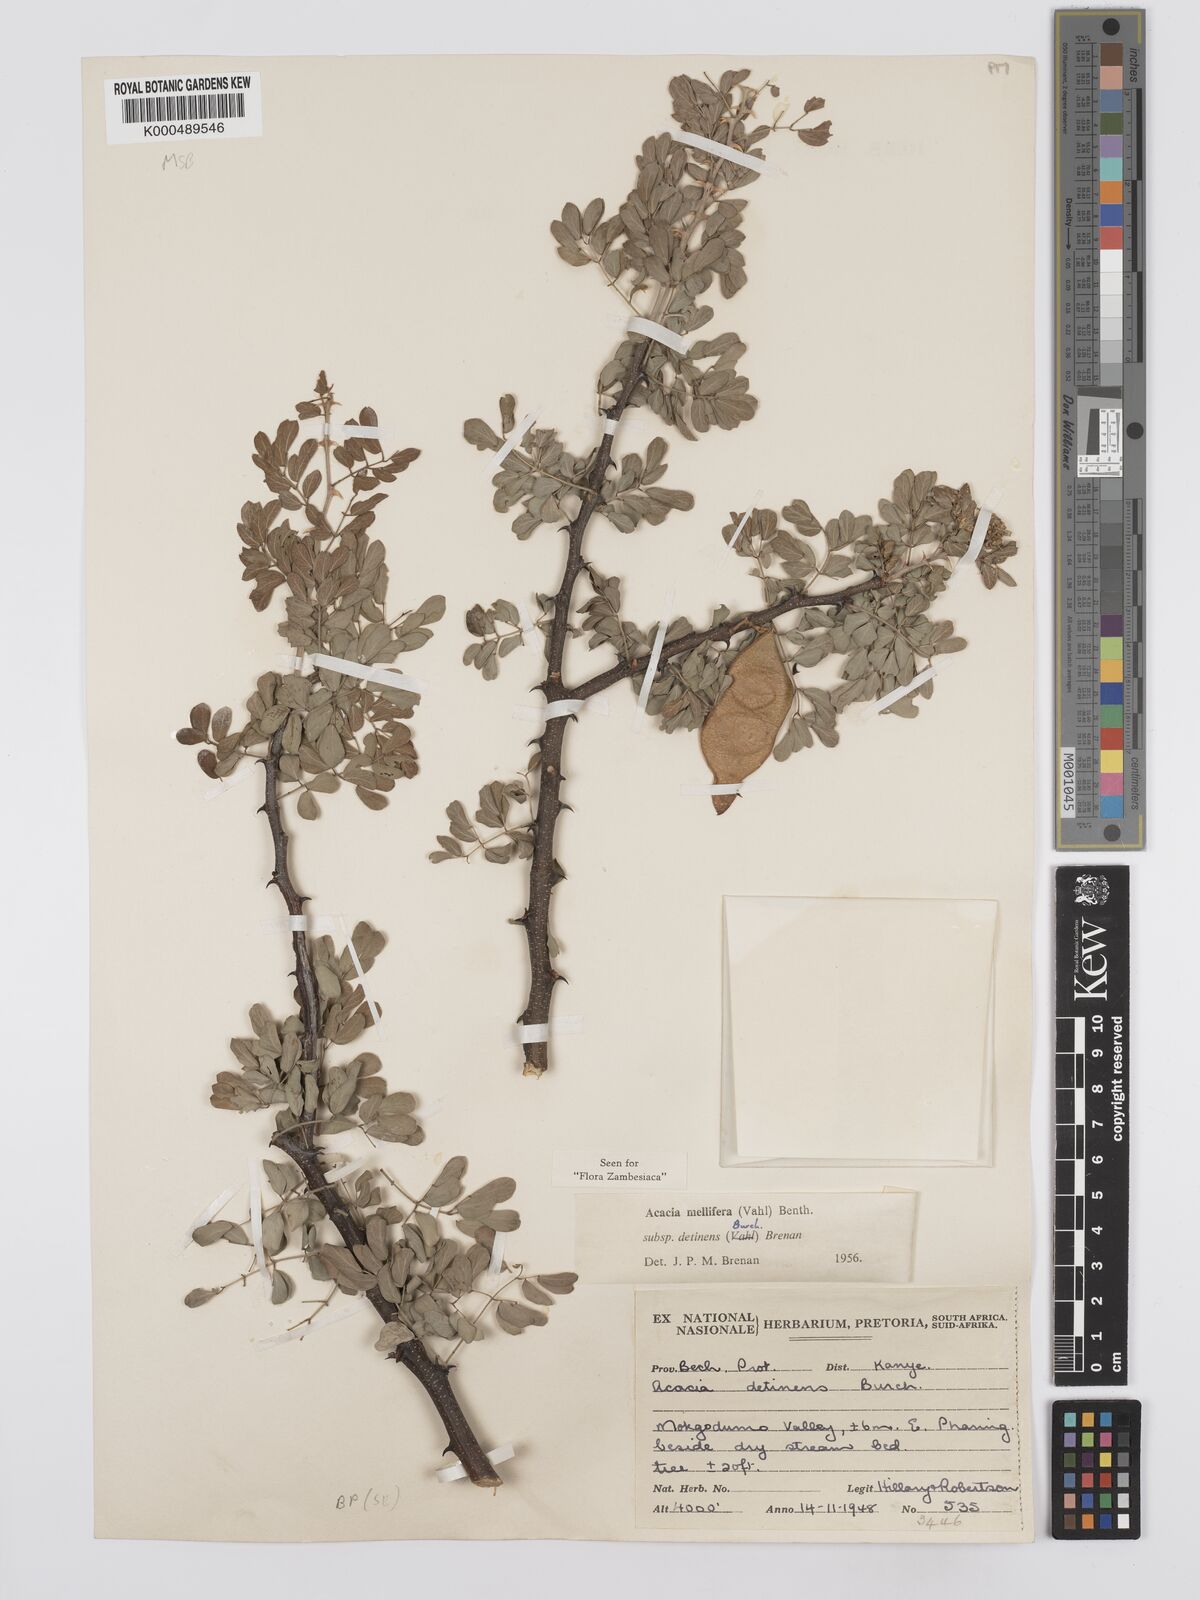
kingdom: Plantae
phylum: Tracheophyta
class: Magnoliopsida
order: Fabales
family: Fabaceae
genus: Senegalia
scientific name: Senegalia mellifera
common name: Hookthorn
